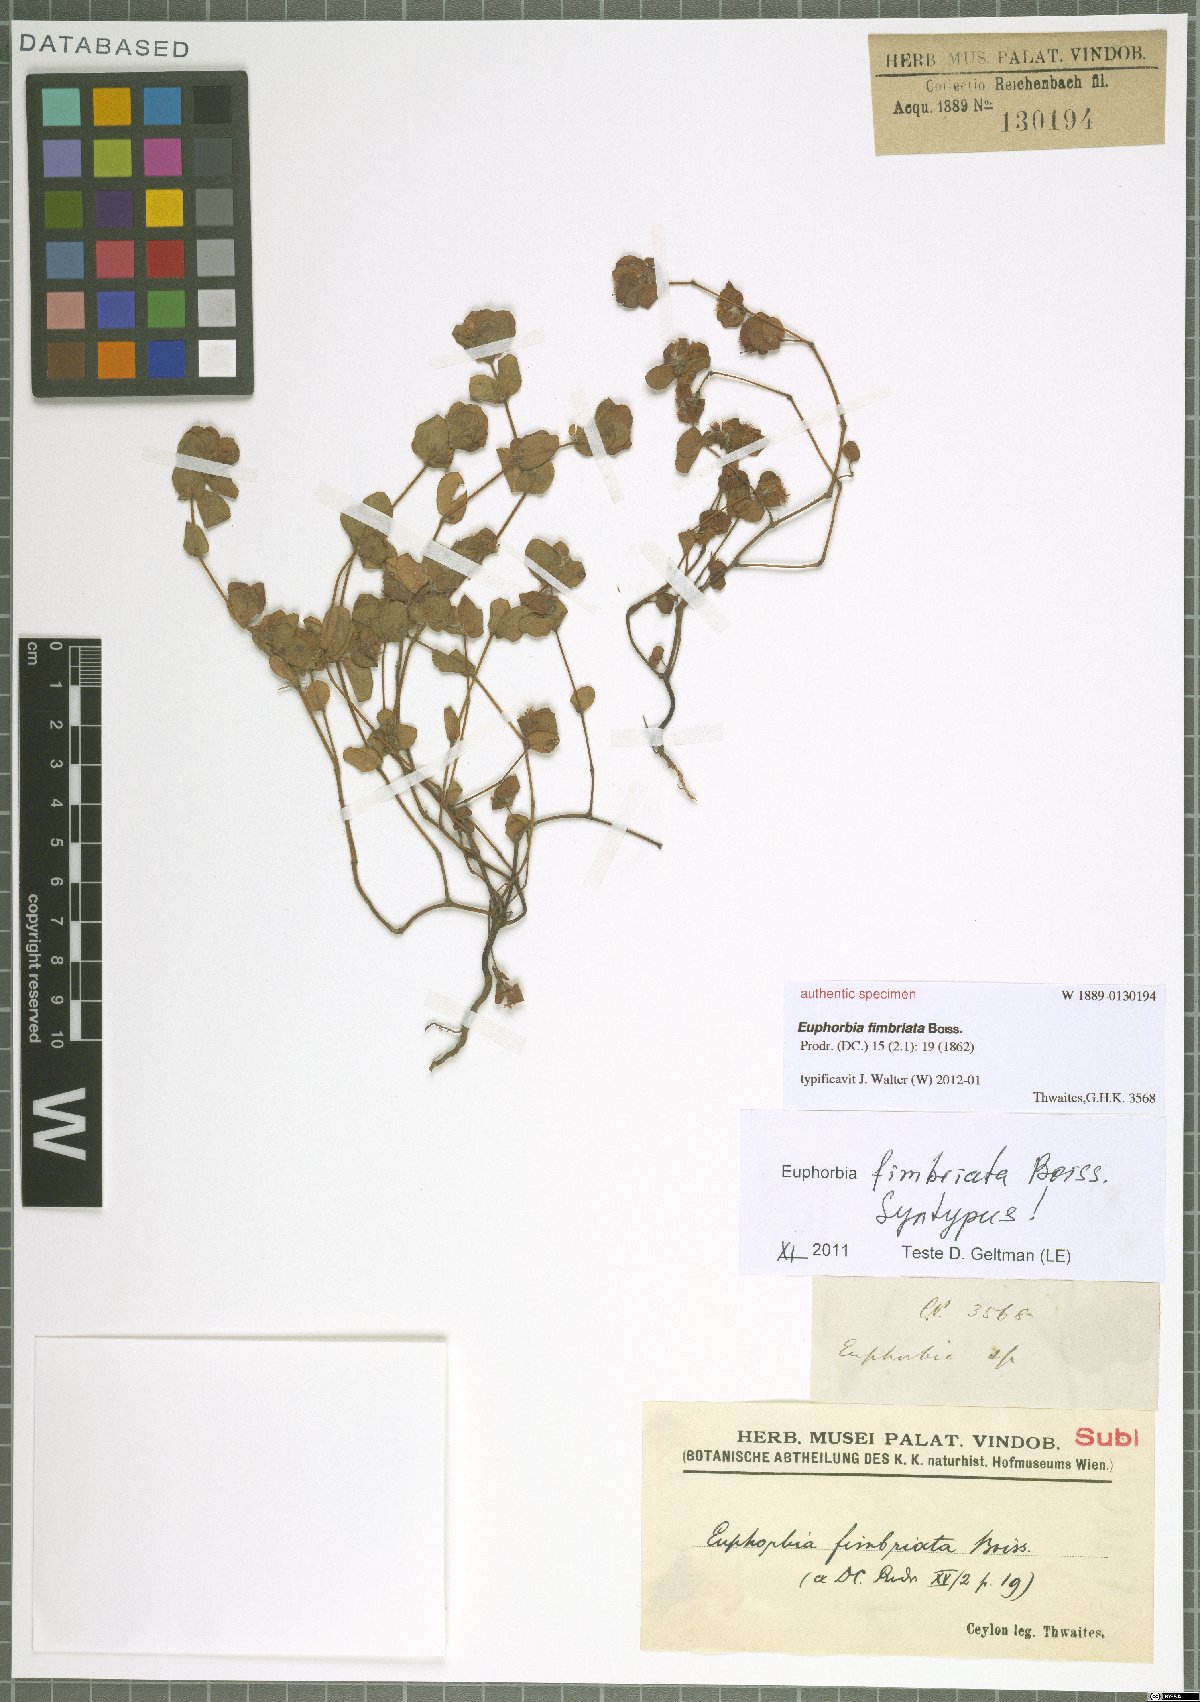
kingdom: Plantae
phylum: Tracheophyta
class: Magnoliopsida
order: Malpighiales
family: Euphorbiaceae
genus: Euphorbia
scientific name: Euphorbia khasyana
